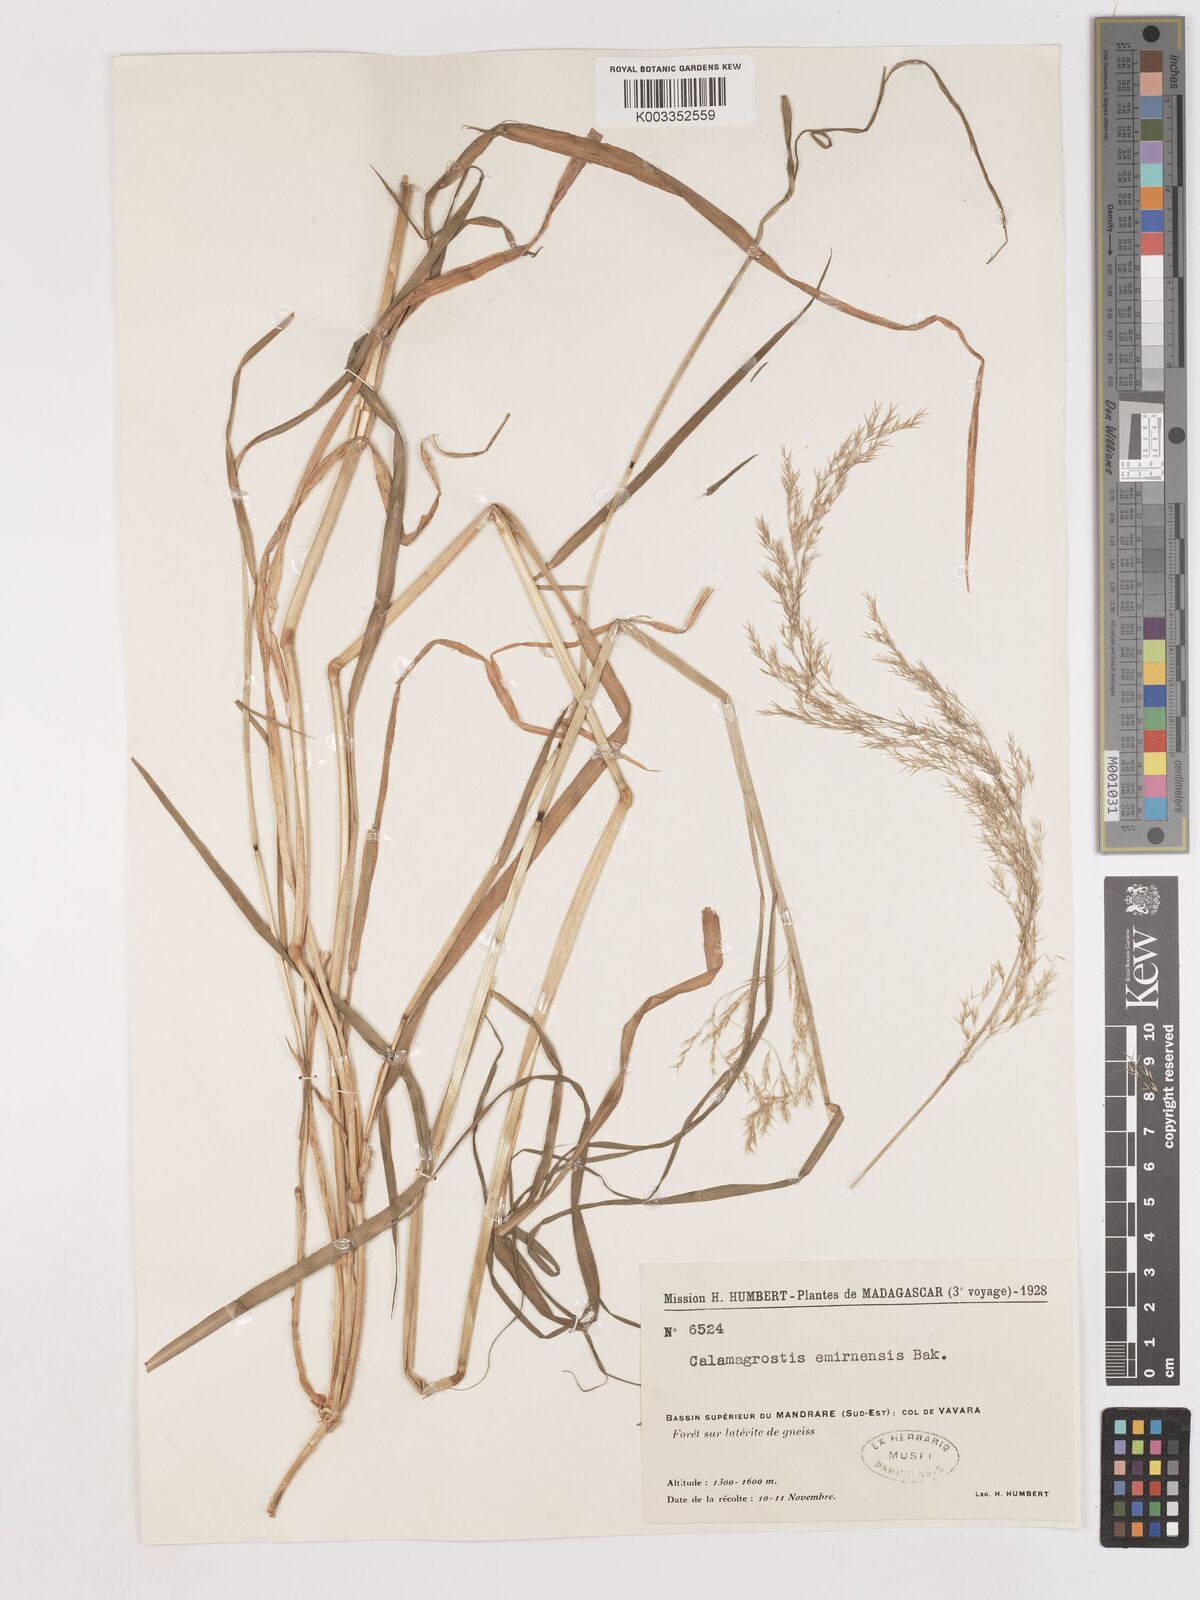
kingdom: Plantae
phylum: Tracheophyta
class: Liliopsida
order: Poales
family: Poaceae
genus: Agrostis
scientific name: Agrostis emirnensis
